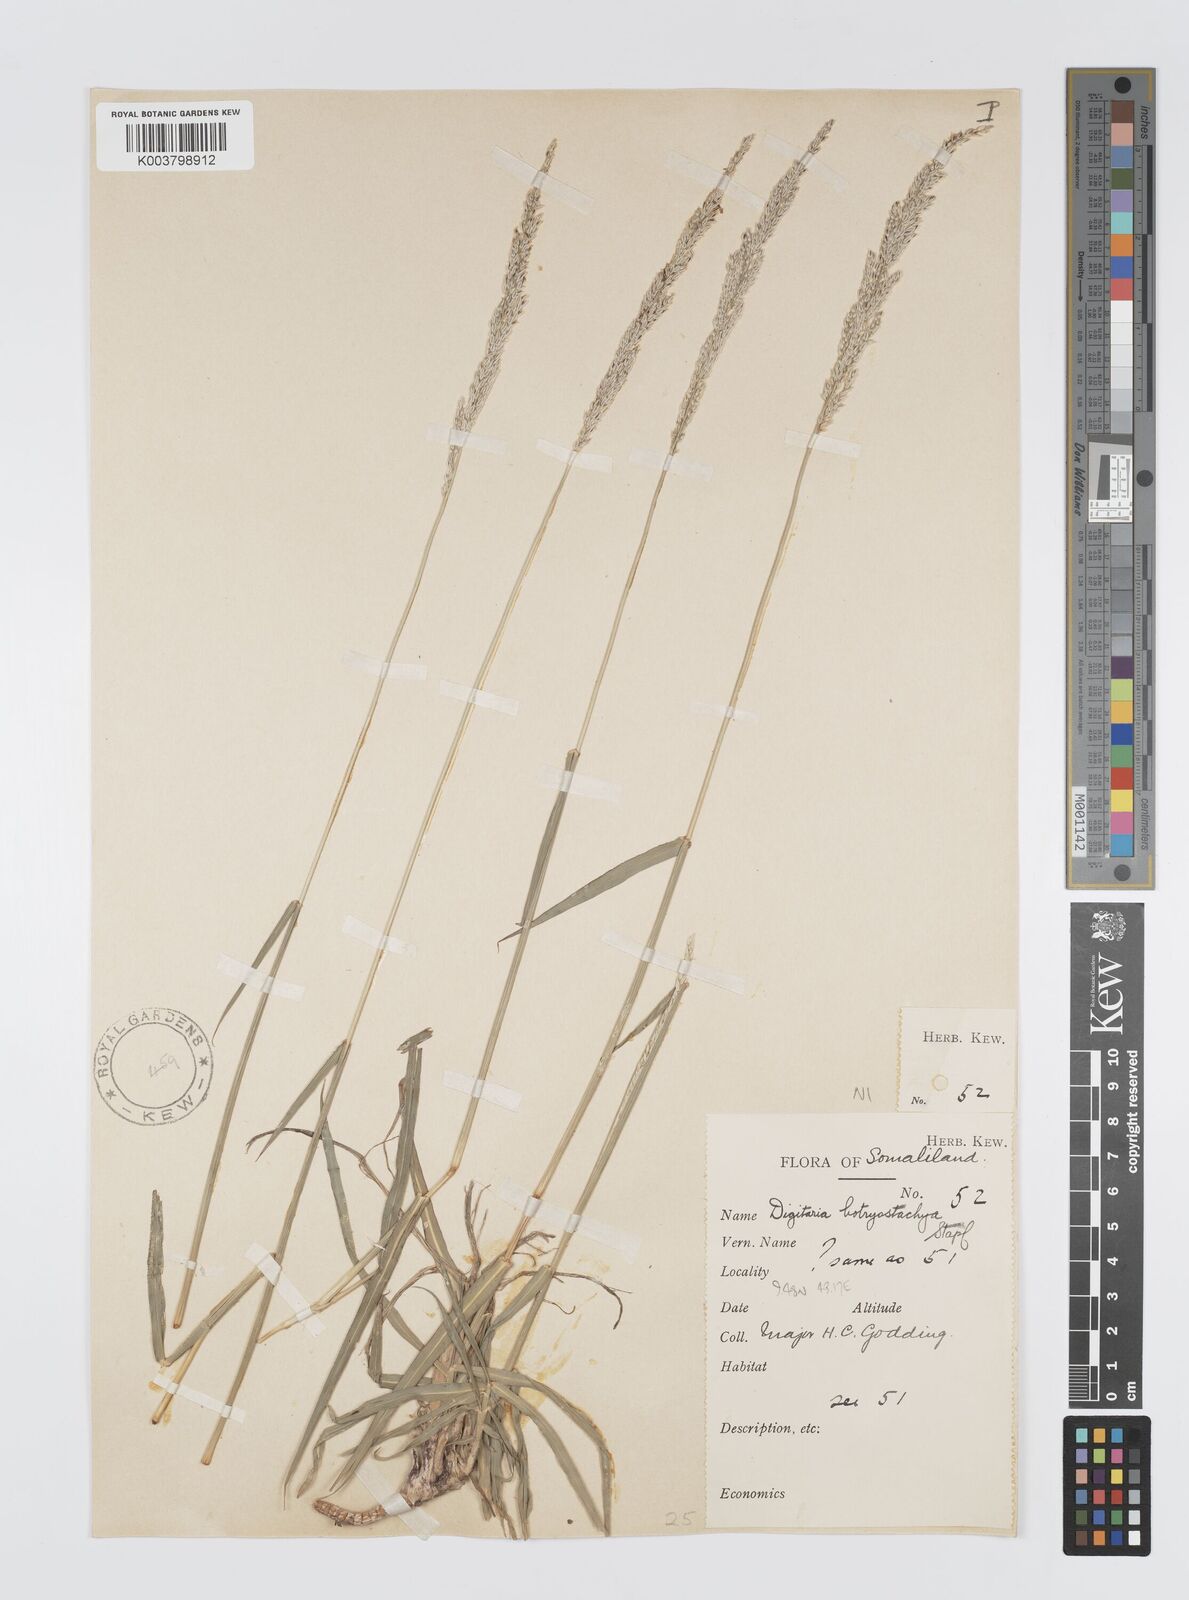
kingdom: Plantae
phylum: Tracheophyta
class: Liliopsida
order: Poales
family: Poaceae
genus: Digitaria
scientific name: Digitaria rivae
